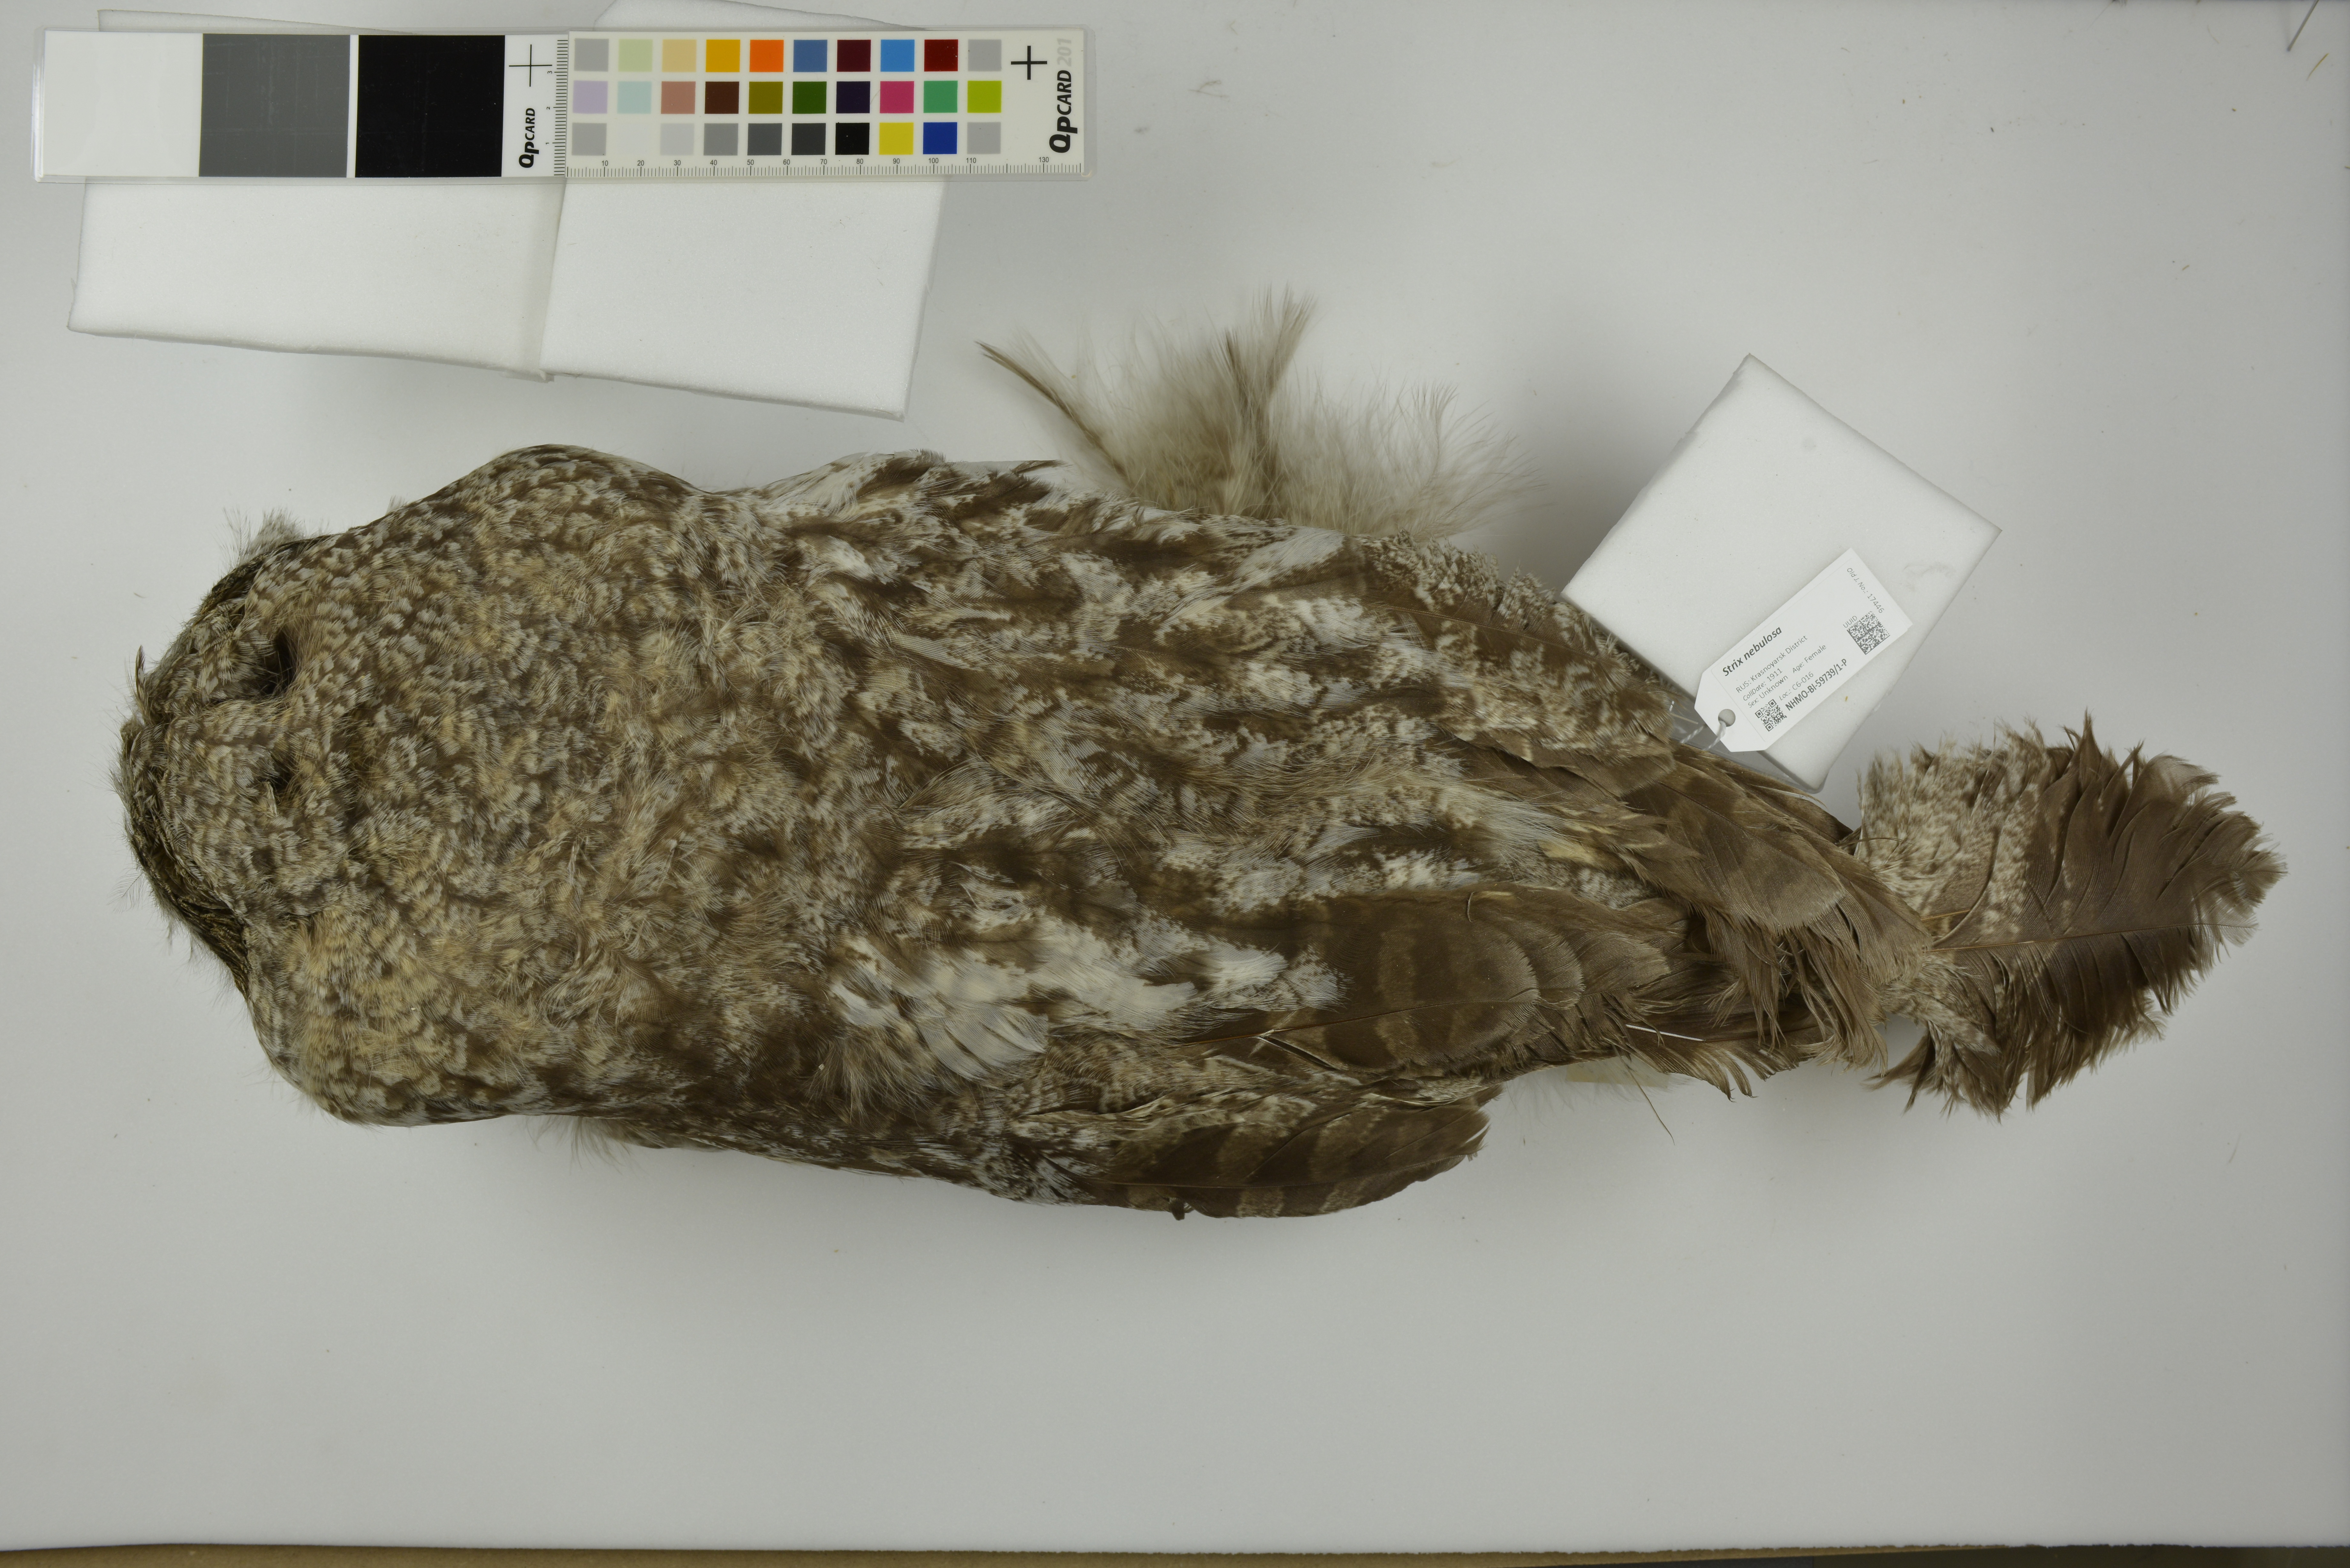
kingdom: Animalia
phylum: Chordata
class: Aves
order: Strigiformes
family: Strigidae
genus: Strix
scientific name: Strix nebulosa
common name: Great grey owl
